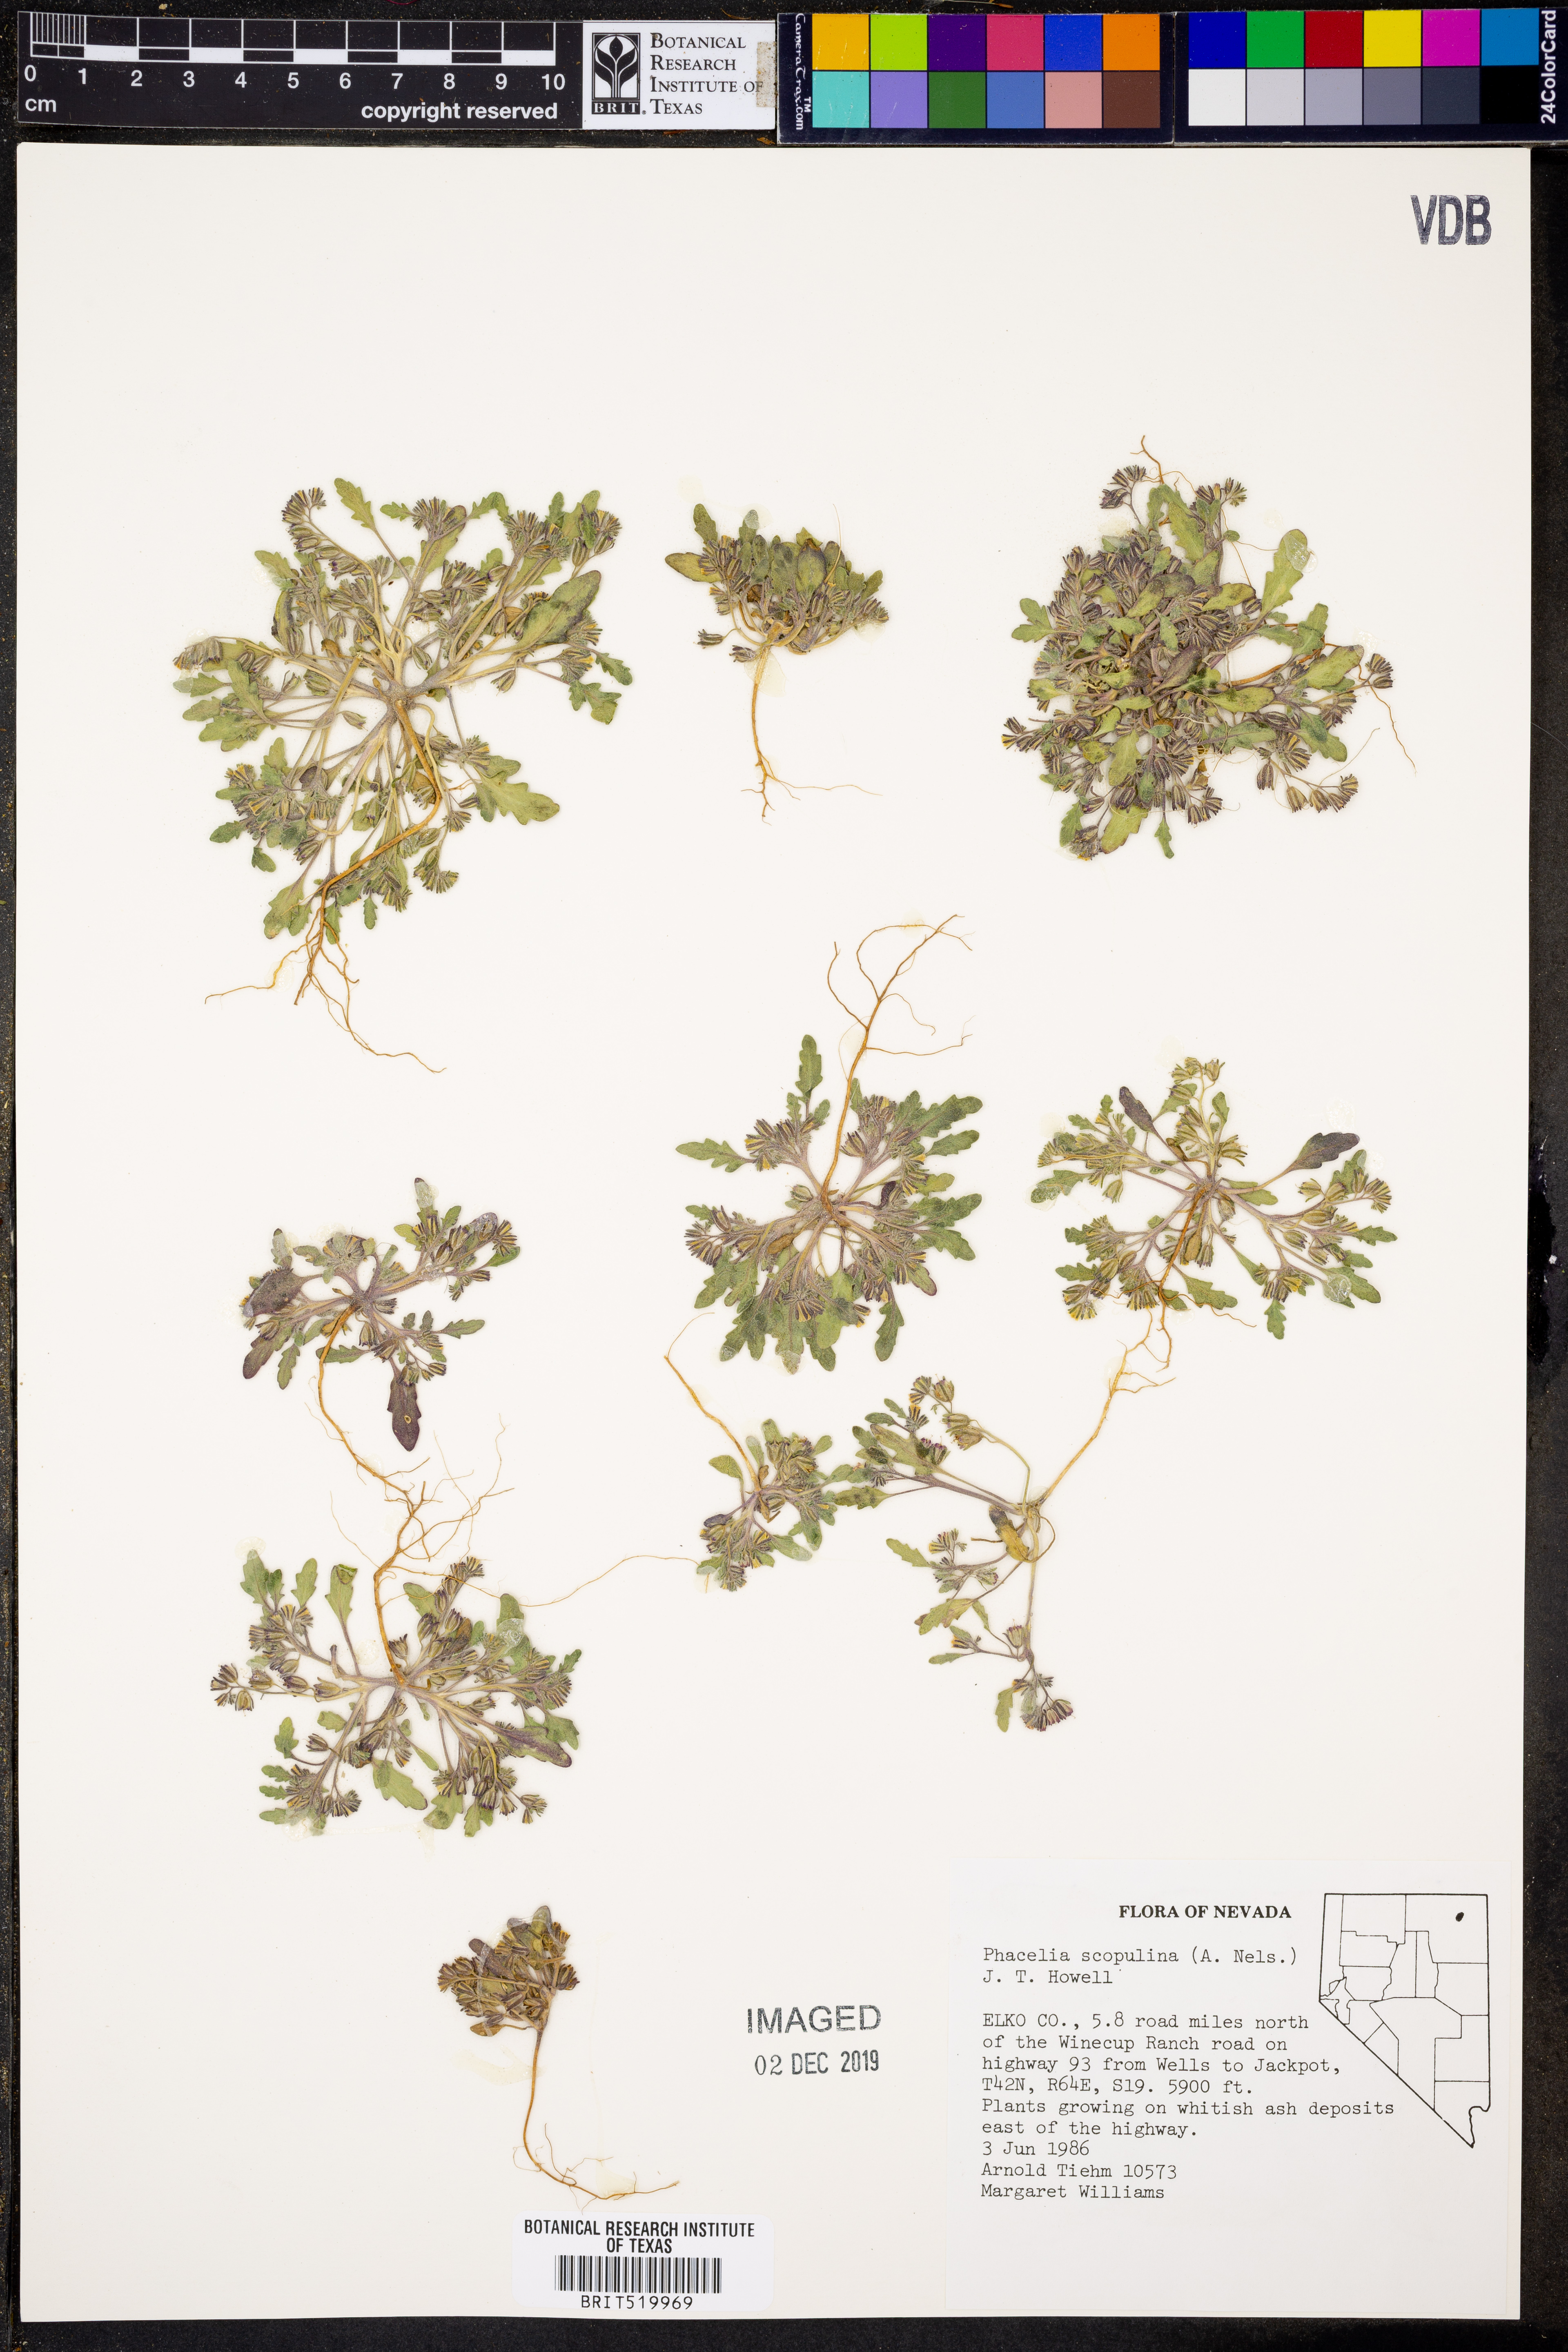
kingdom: Plantae
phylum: Tracheophyta
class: Magnoliopsida
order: Boraginales
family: Hydrophyllaceae
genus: Phacelia
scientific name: Phacelia scopulina
